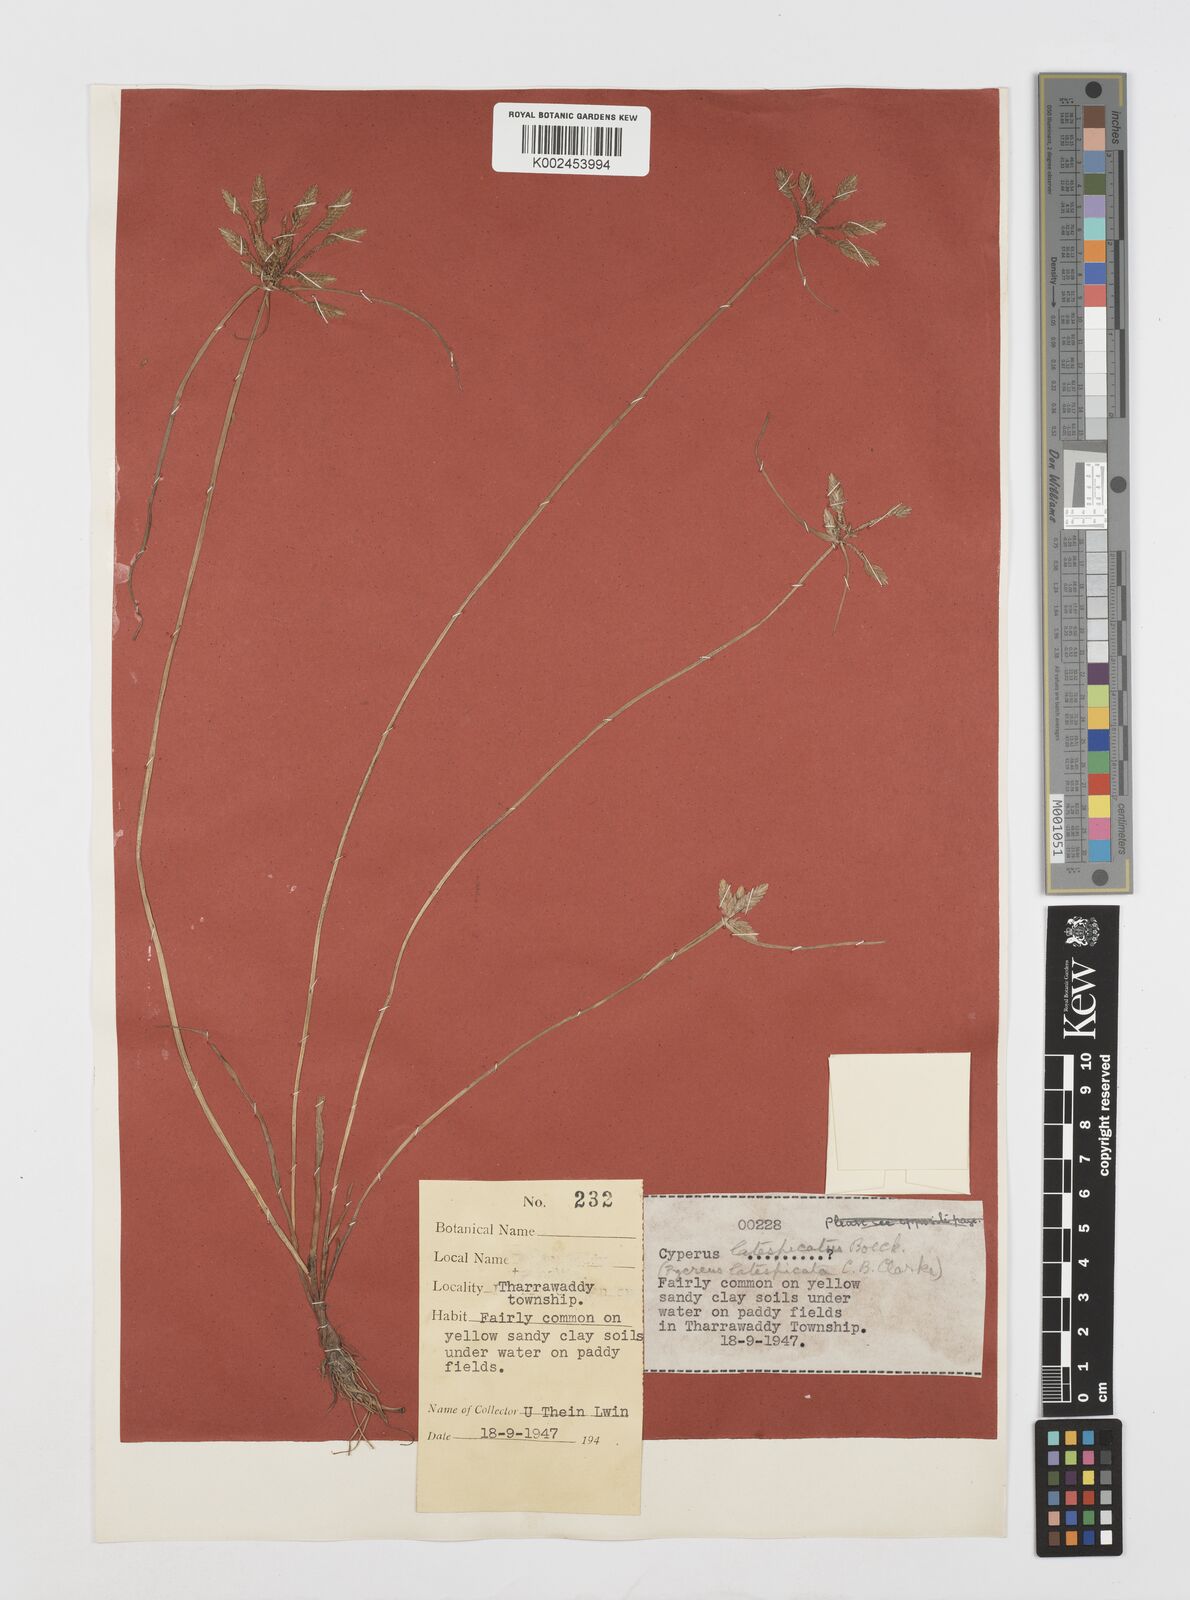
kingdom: Plantae
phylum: Tracheophyta
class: Liliopsida
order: Poales
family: Cyperaceae
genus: Cyperus
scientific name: Cyperus unioloides
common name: Uniola flatsedge
